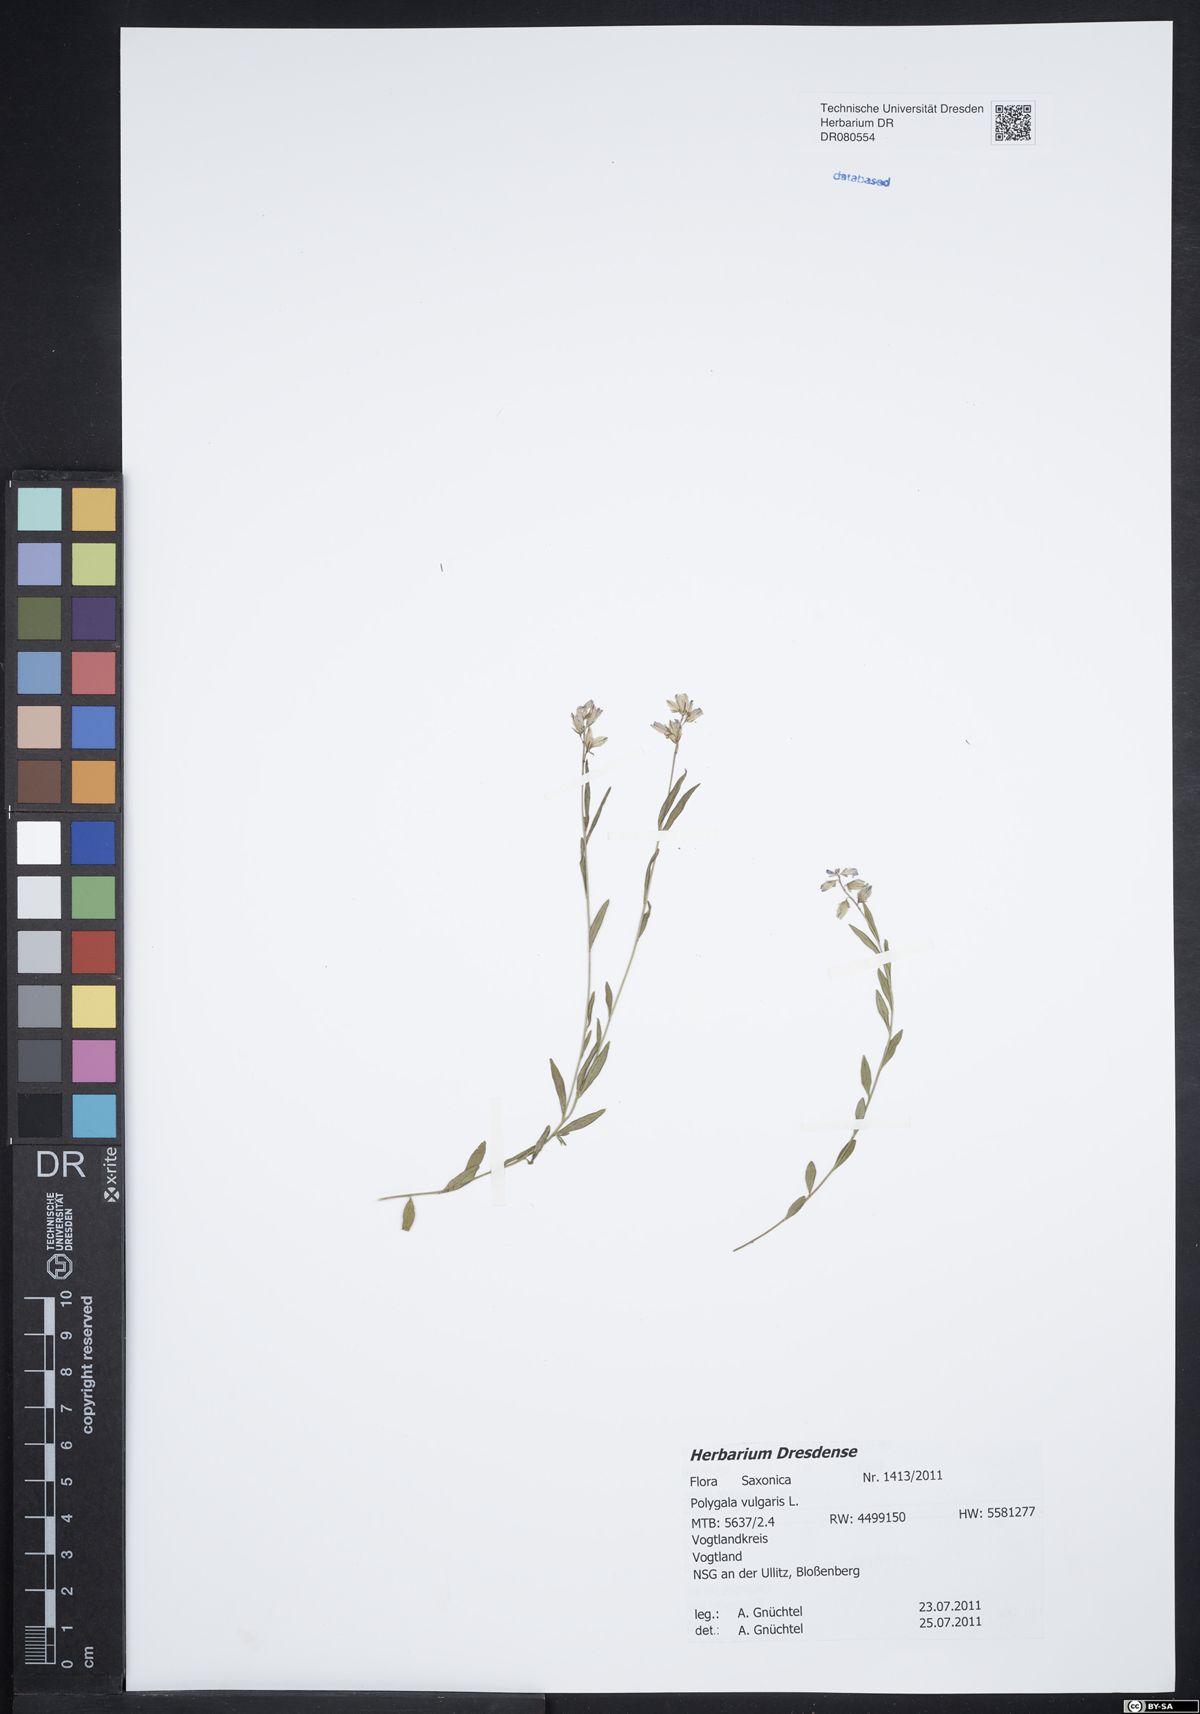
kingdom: Plantae
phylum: Tracheophyta
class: Magnoliopsida
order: Fabales
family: Polygalaceae
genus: Polygala
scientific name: Polygala vulgaris
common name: Common milkwort
